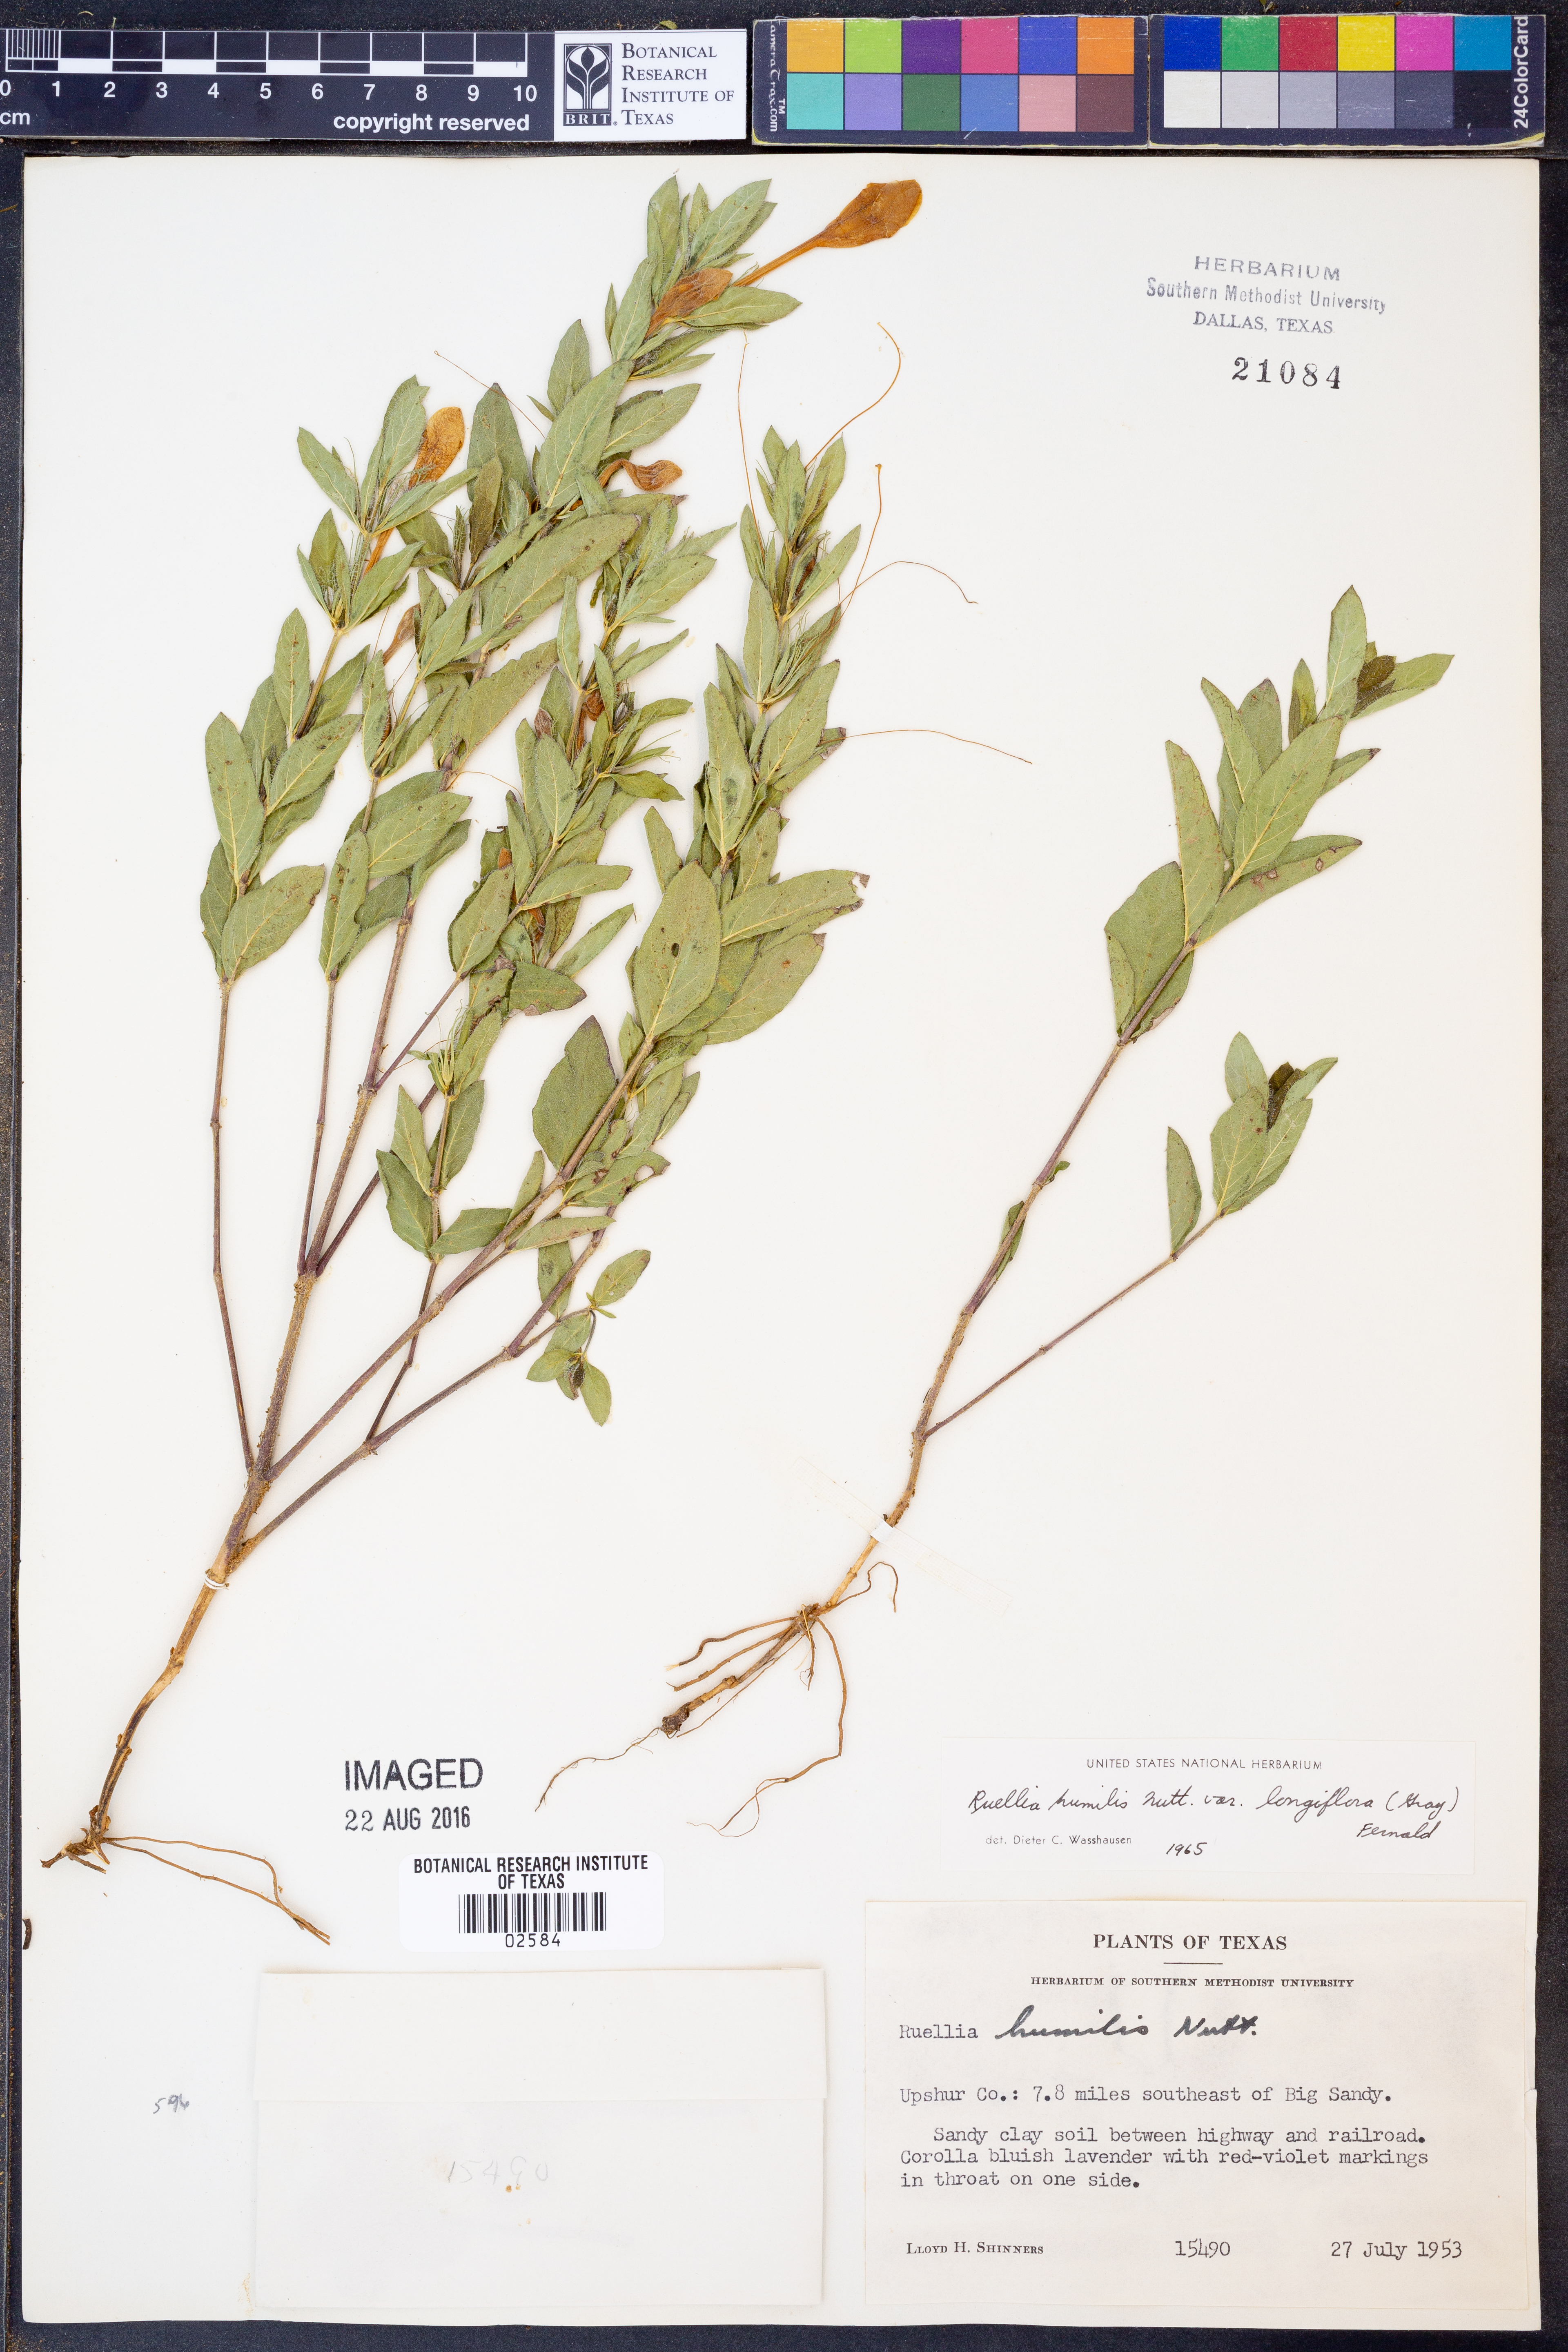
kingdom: Plantae
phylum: Tracheophyta
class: Magnoliopsida
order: Lamiales
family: Acanthaceae
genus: Ruellia
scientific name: Ruellia humilis
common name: Fringe-leaf ruellia
